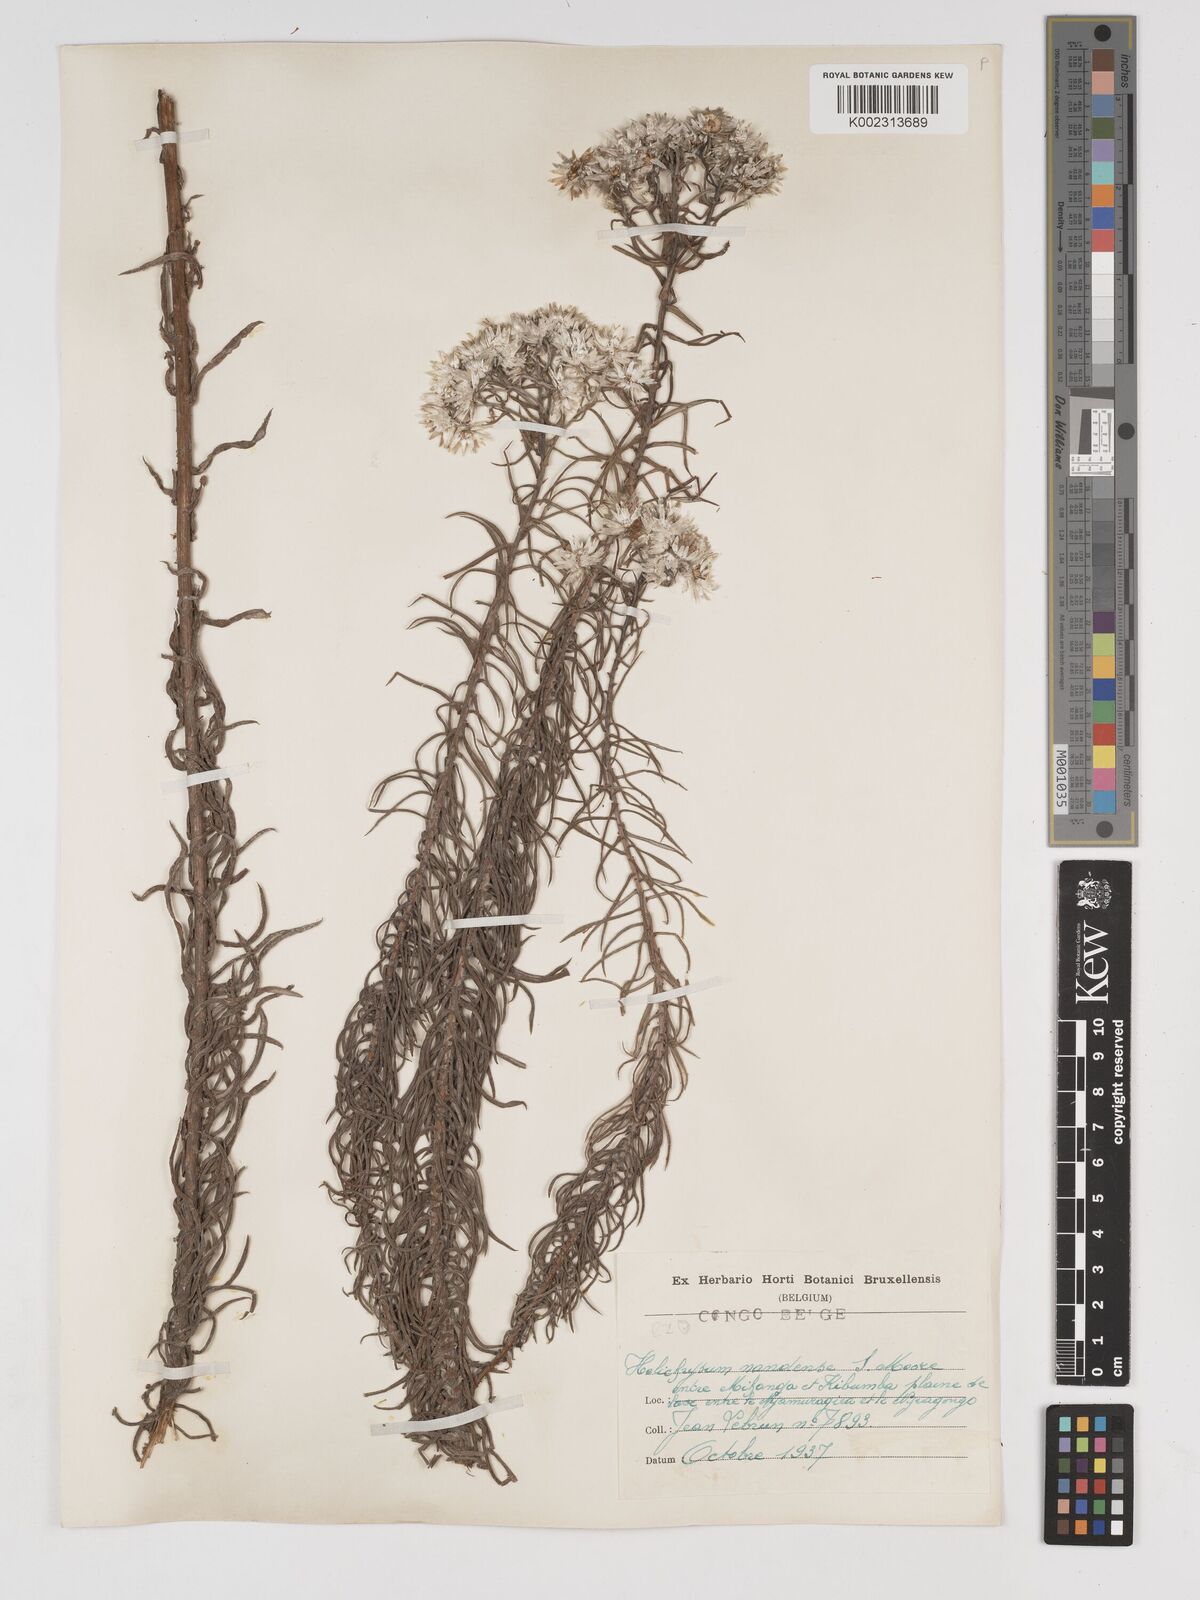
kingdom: Plantae
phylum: Tracheophyta
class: Magnoliopsida
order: Asterales
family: Asteraceae
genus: Helichrysum
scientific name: Helichrysum argyranthum
